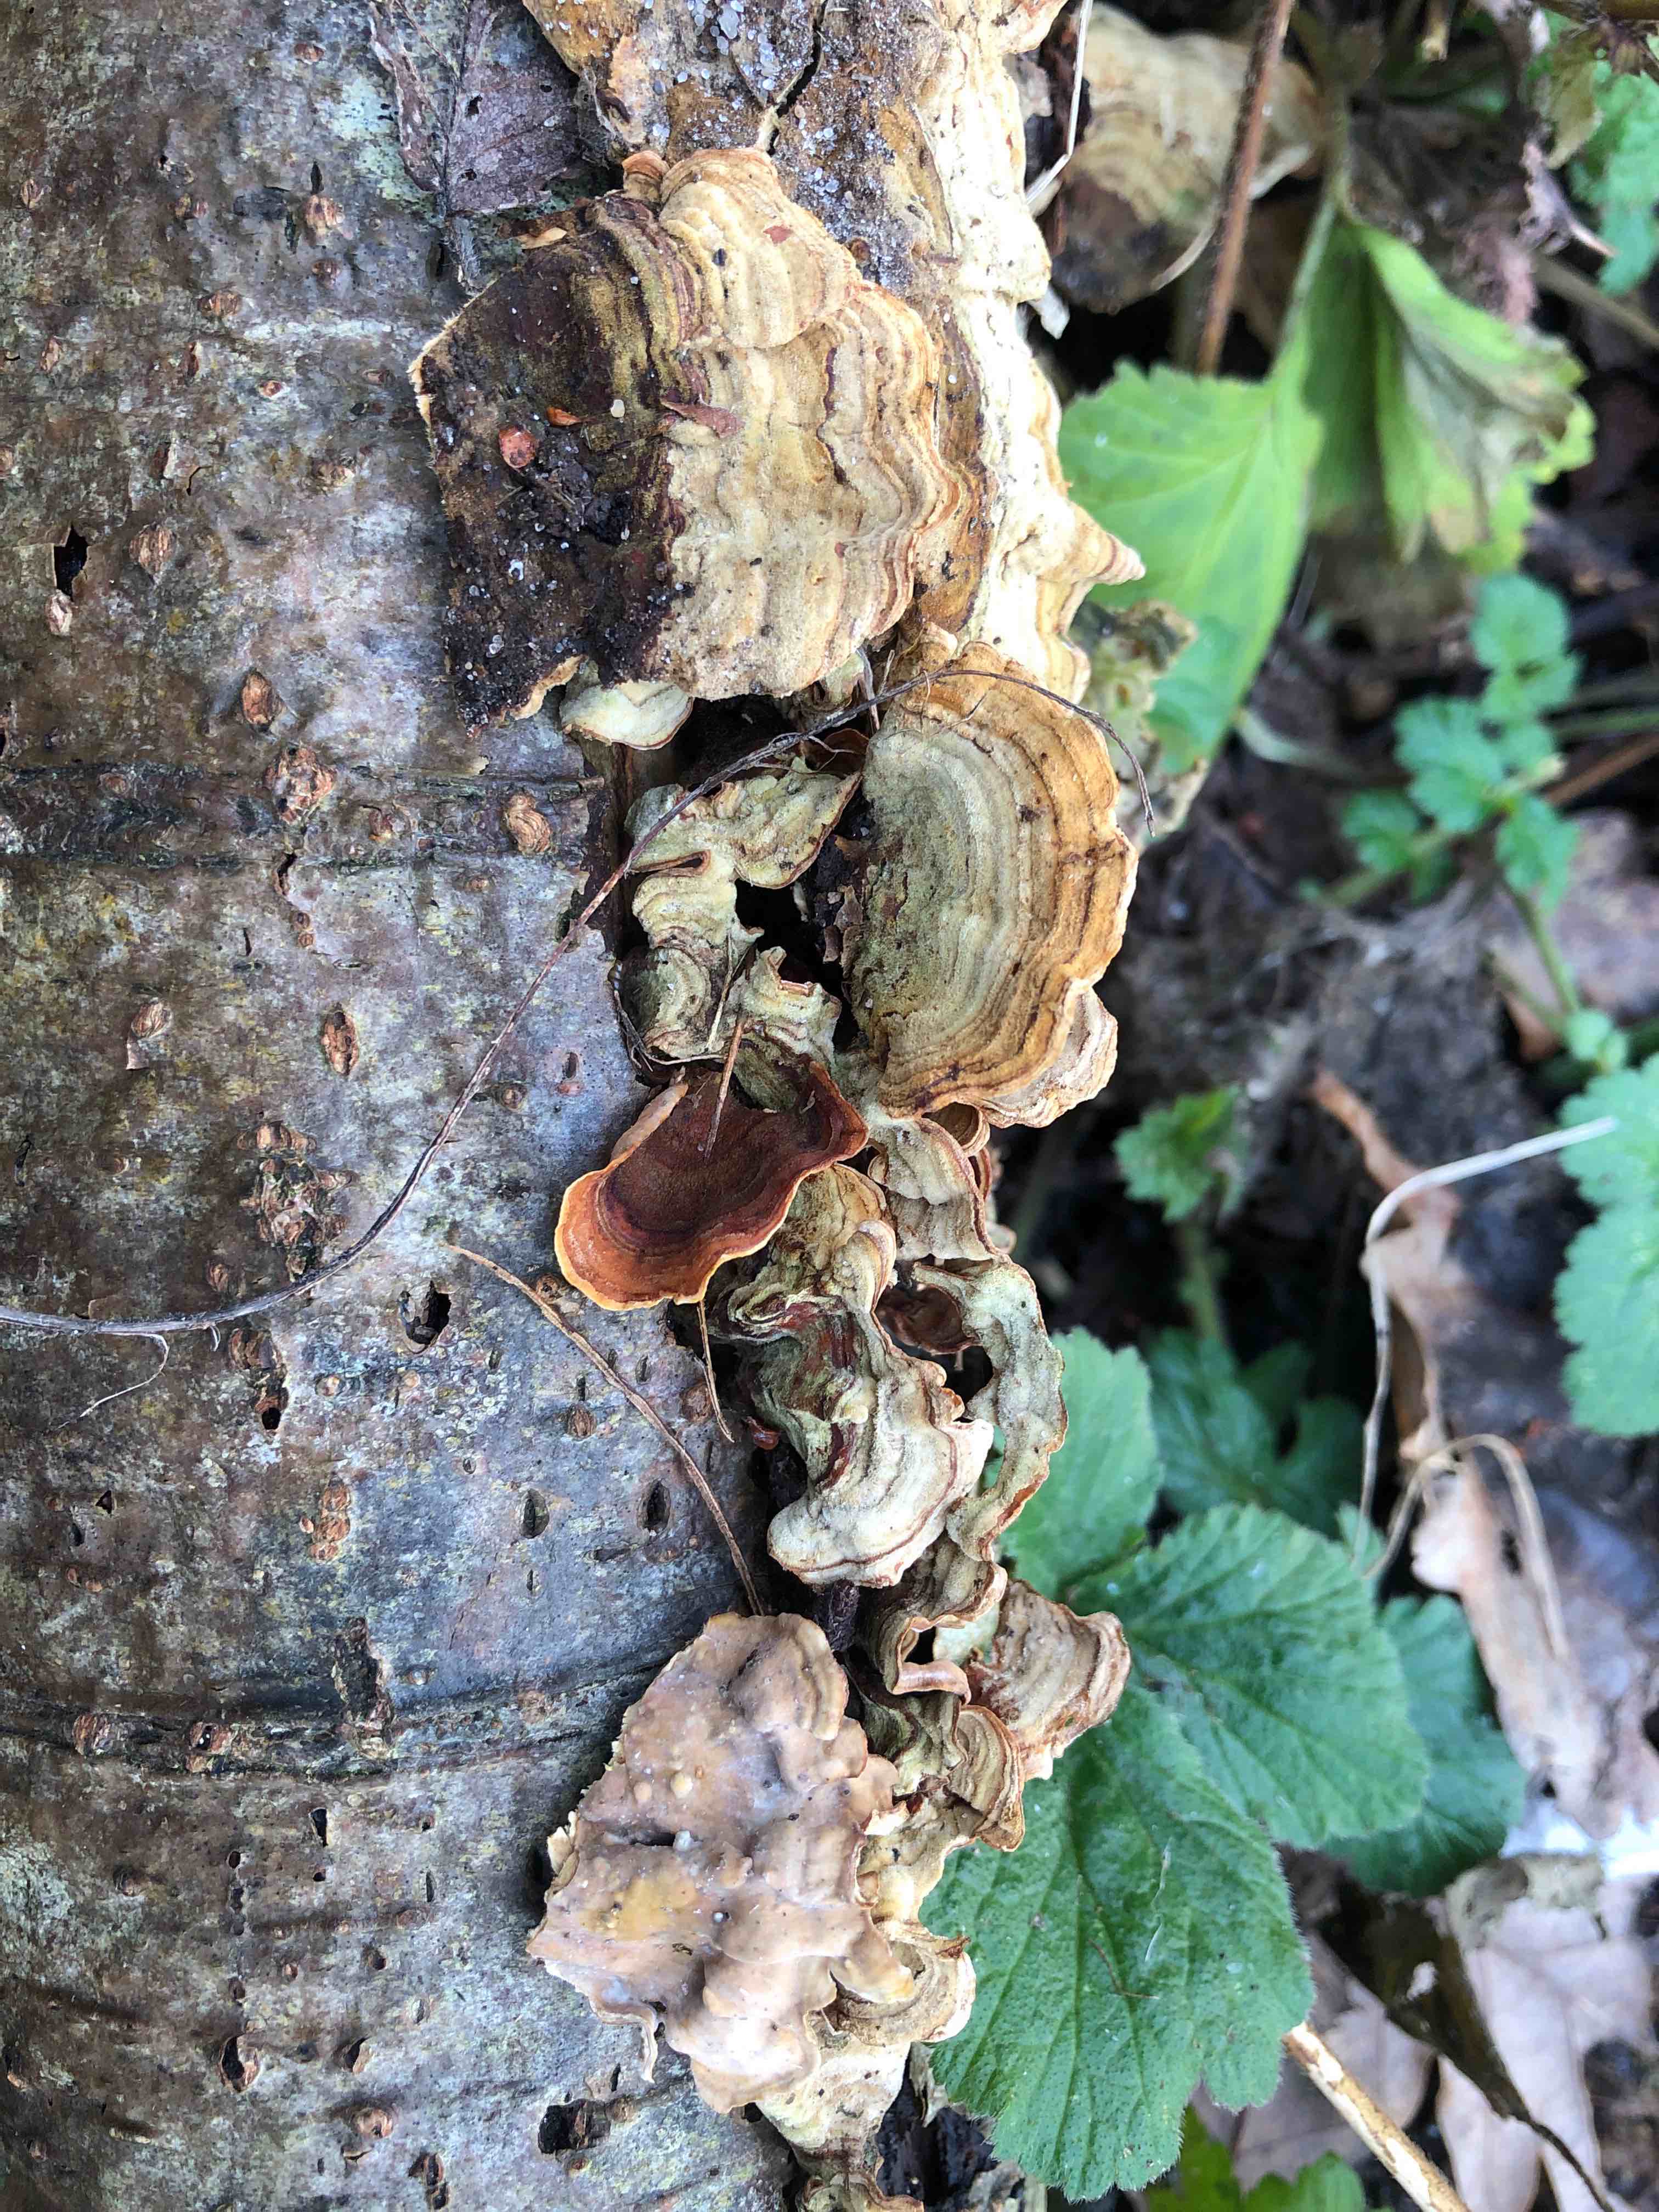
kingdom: Fungi
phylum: Basidiomycota
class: Agaricomycetes
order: Russulales
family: Stereaceae
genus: Stereum
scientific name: Stereum subtomentosum
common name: smuk lædersvamp
